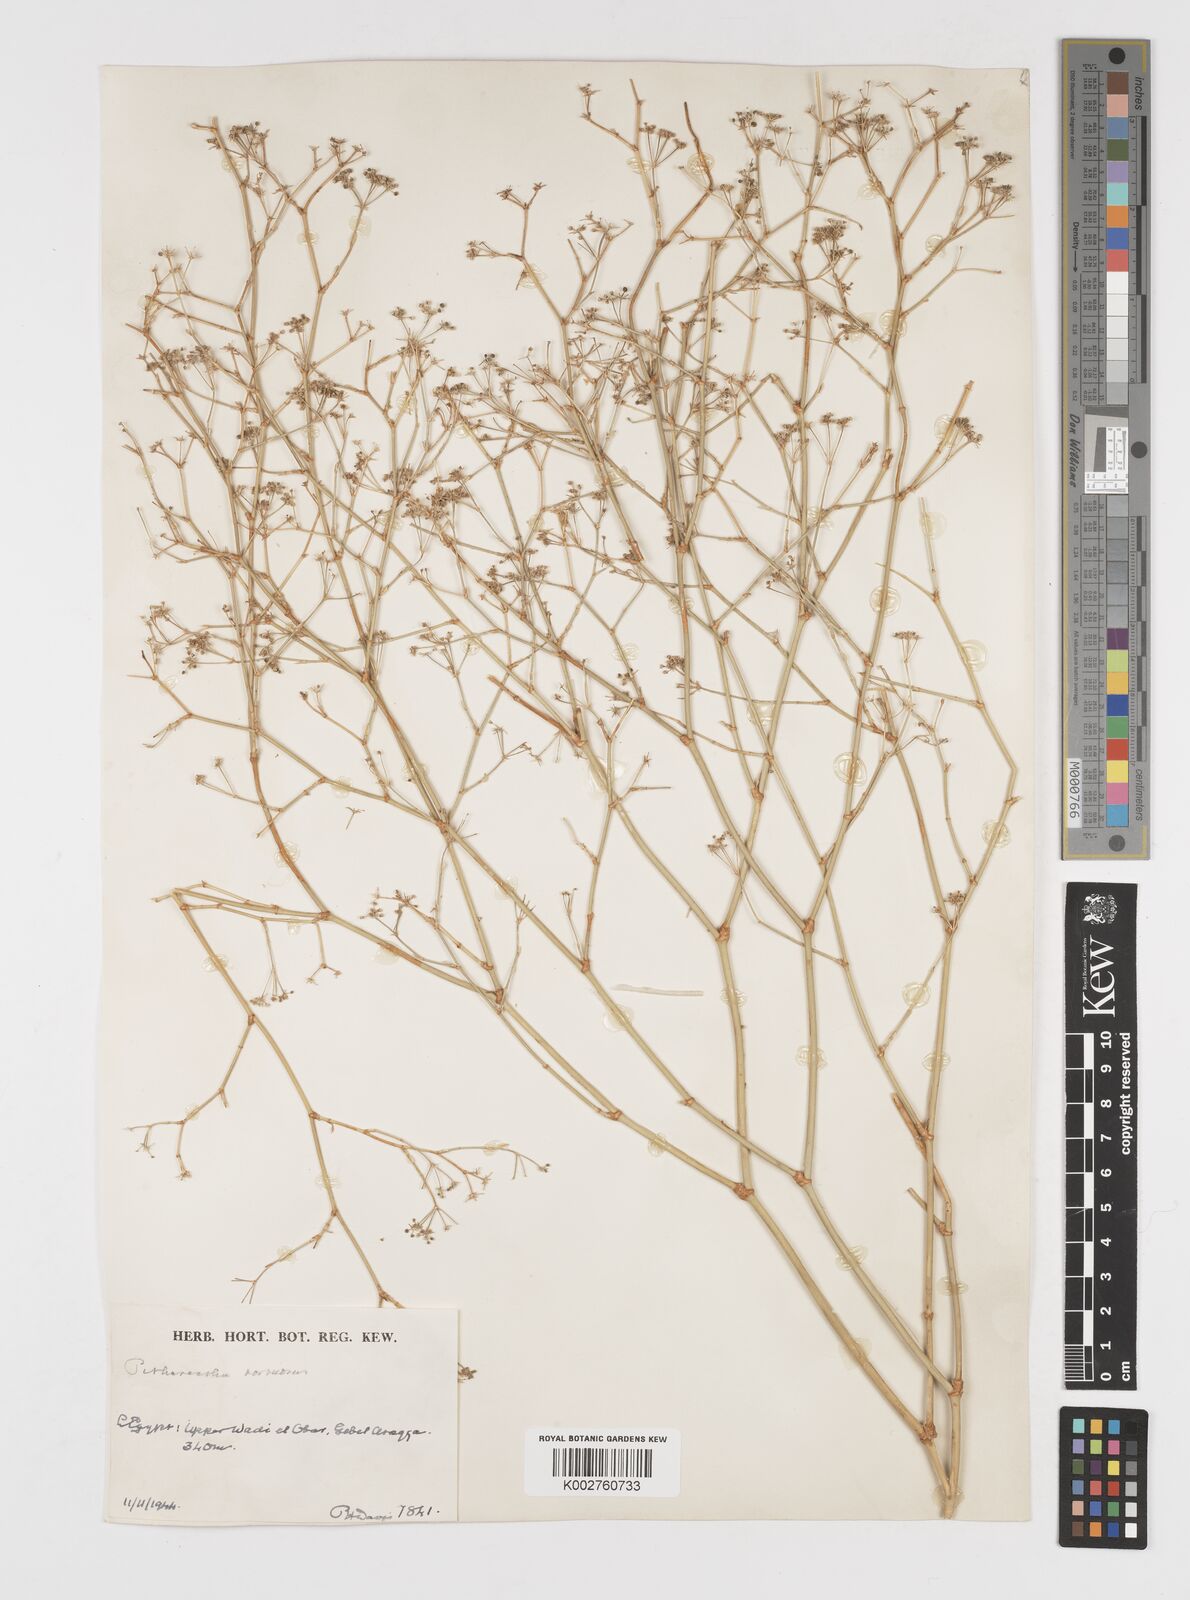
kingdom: Plantae
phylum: Tracheophyta
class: Magnoliopsida
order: Apiales
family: Apiaceae
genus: Deverra
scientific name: Deverra tortuosa
